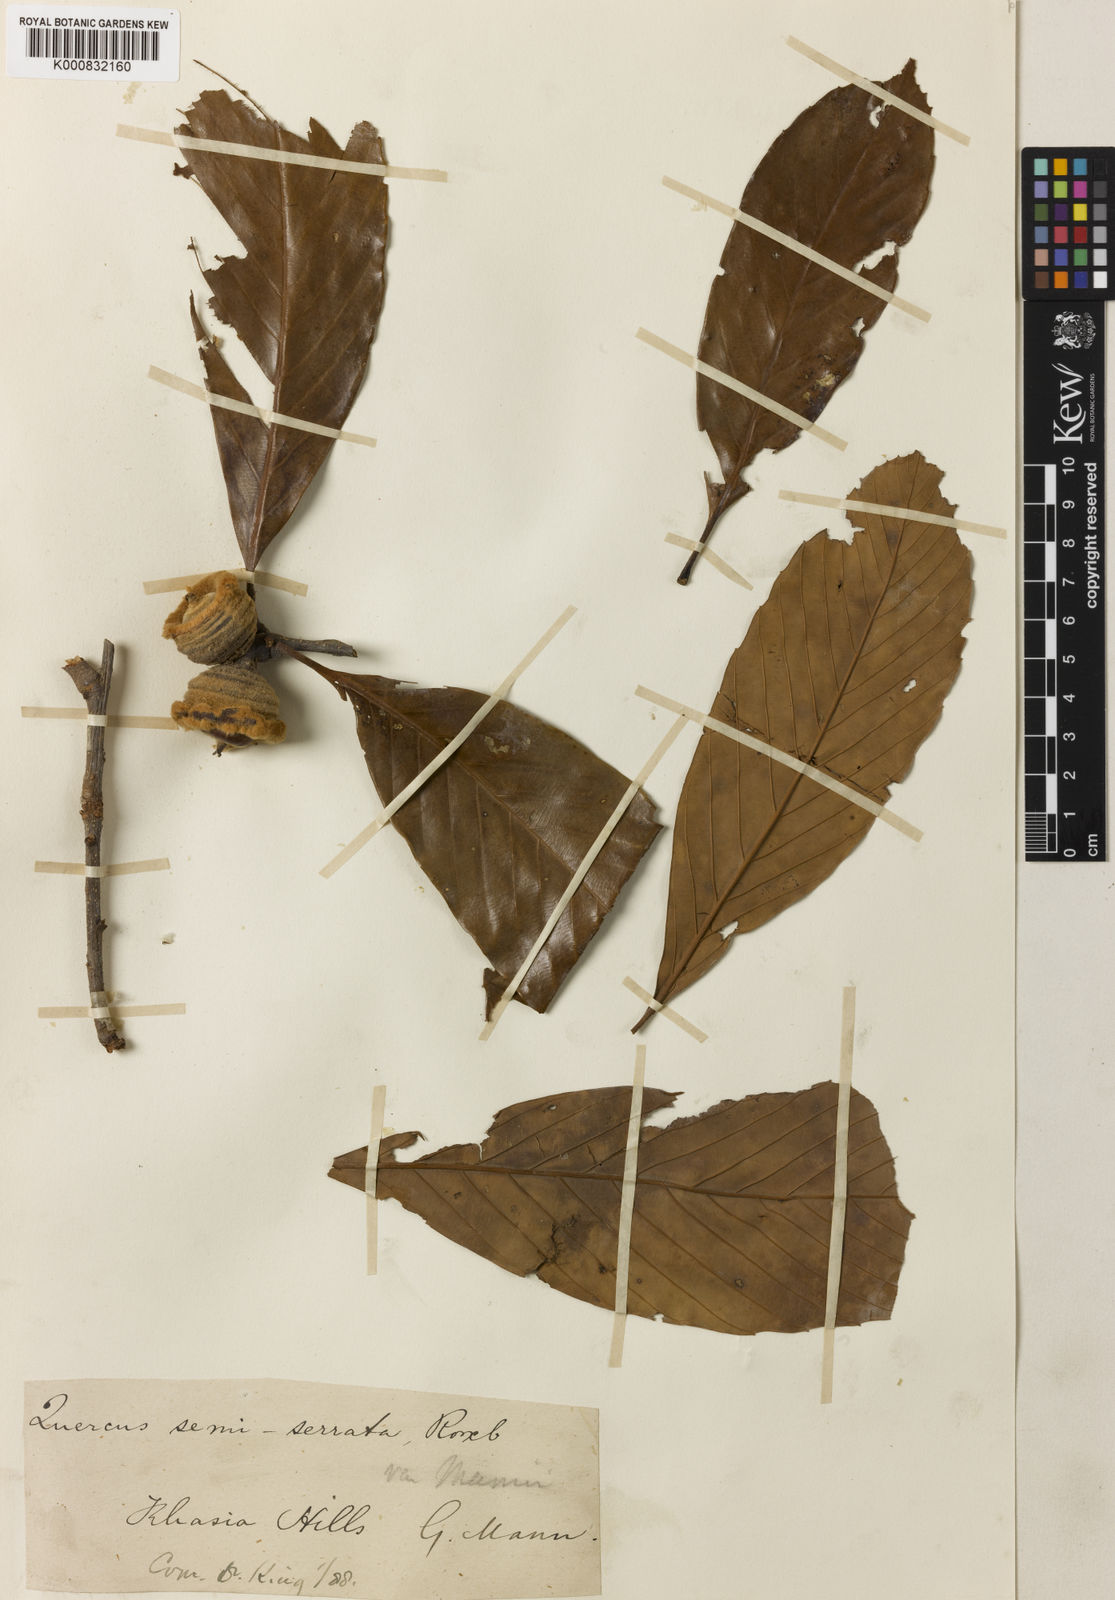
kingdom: Plantae
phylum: Tracheophyta
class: Magnoliopsida
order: Fagales
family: Fagaceae
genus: Quercus
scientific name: Quercus semiserrata
